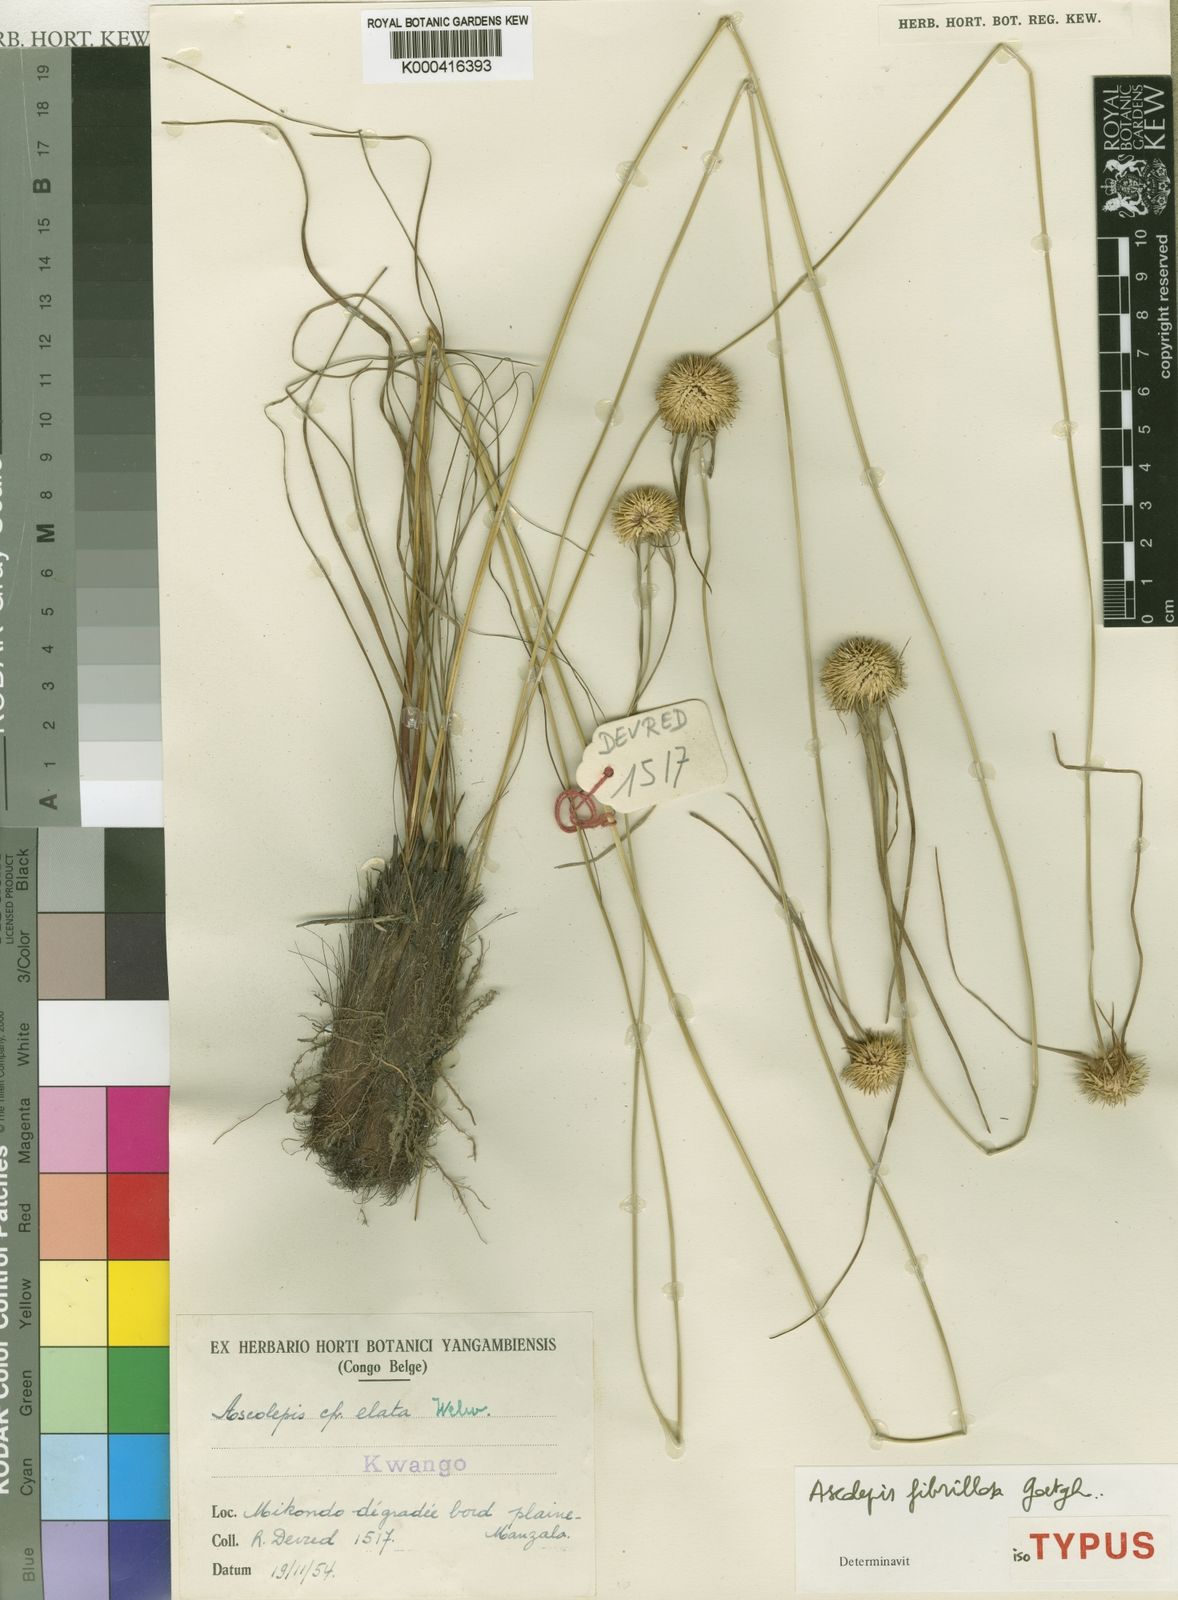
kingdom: Plantae
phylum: Tracheophyta
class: Liliopsida
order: Poales
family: Cyperaceae
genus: Cyperus
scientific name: Cyperus ascofibrillosus
